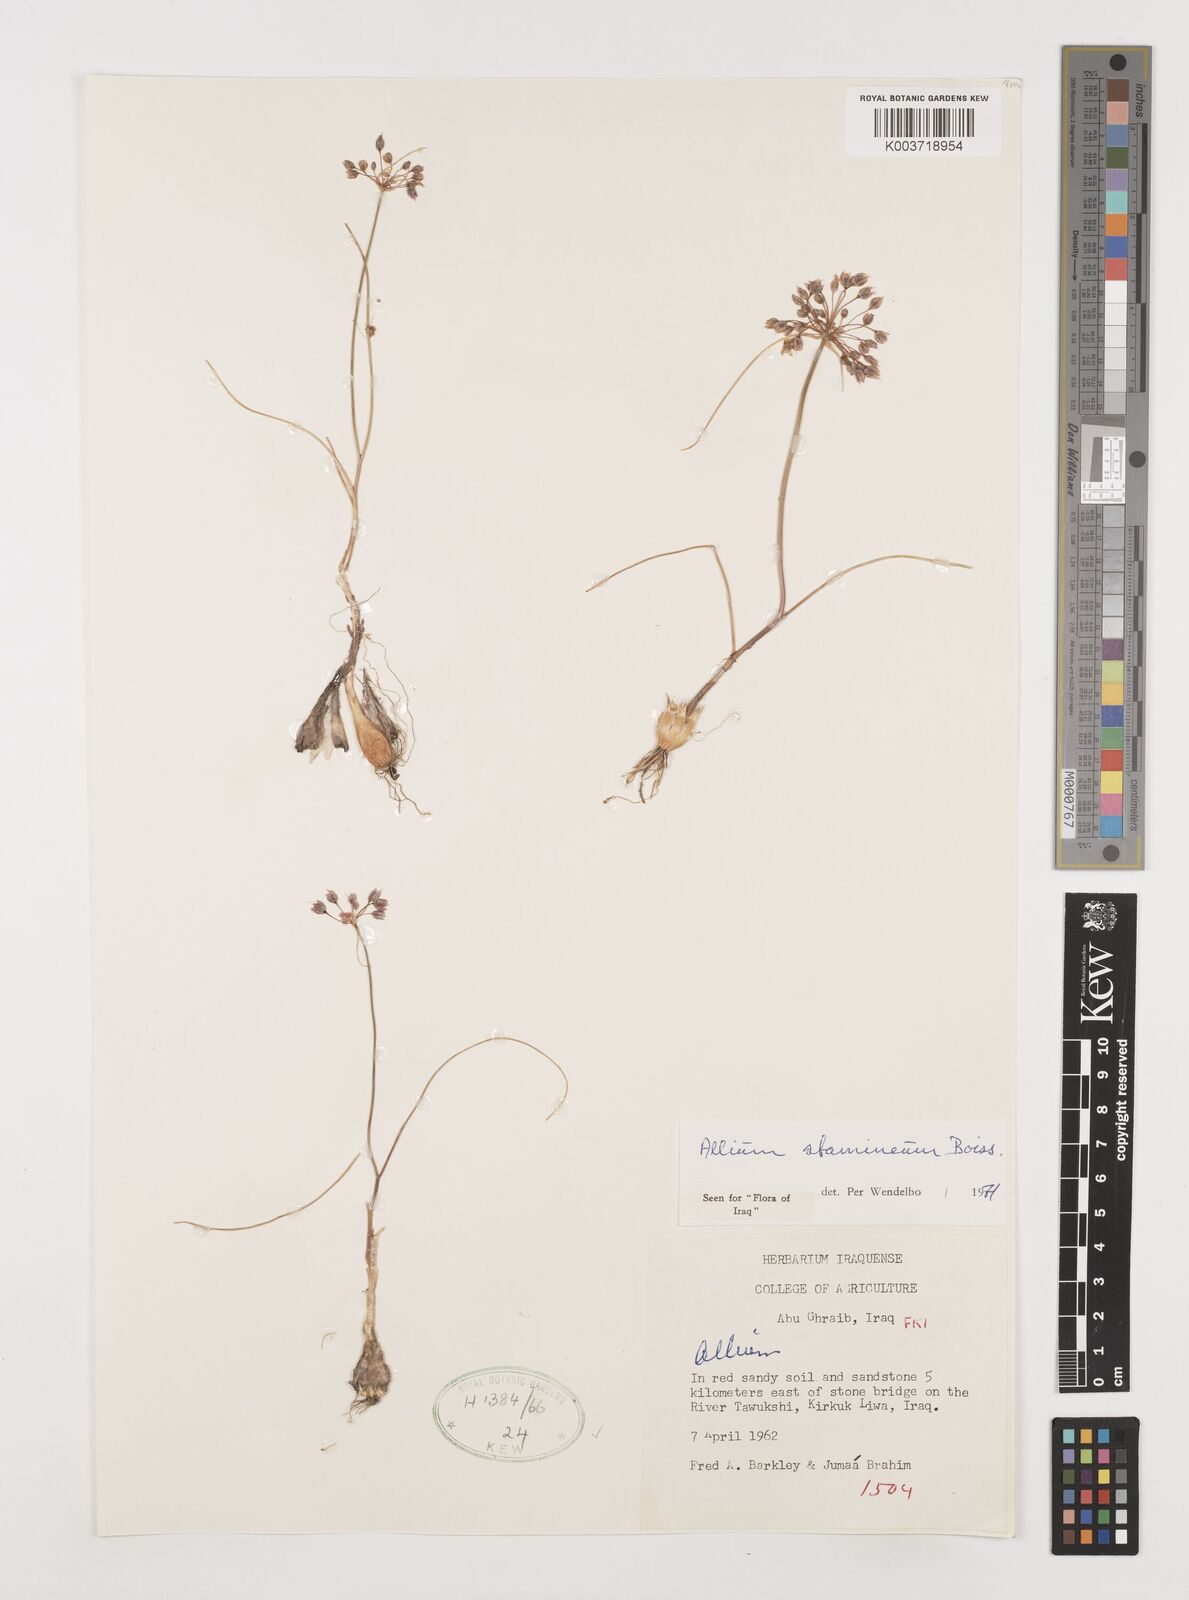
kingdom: Plantae
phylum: Tracheophyta
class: Liliopsida
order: Asparagales
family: Amaryllidaceae
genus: Allium
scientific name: Allium stamineum
